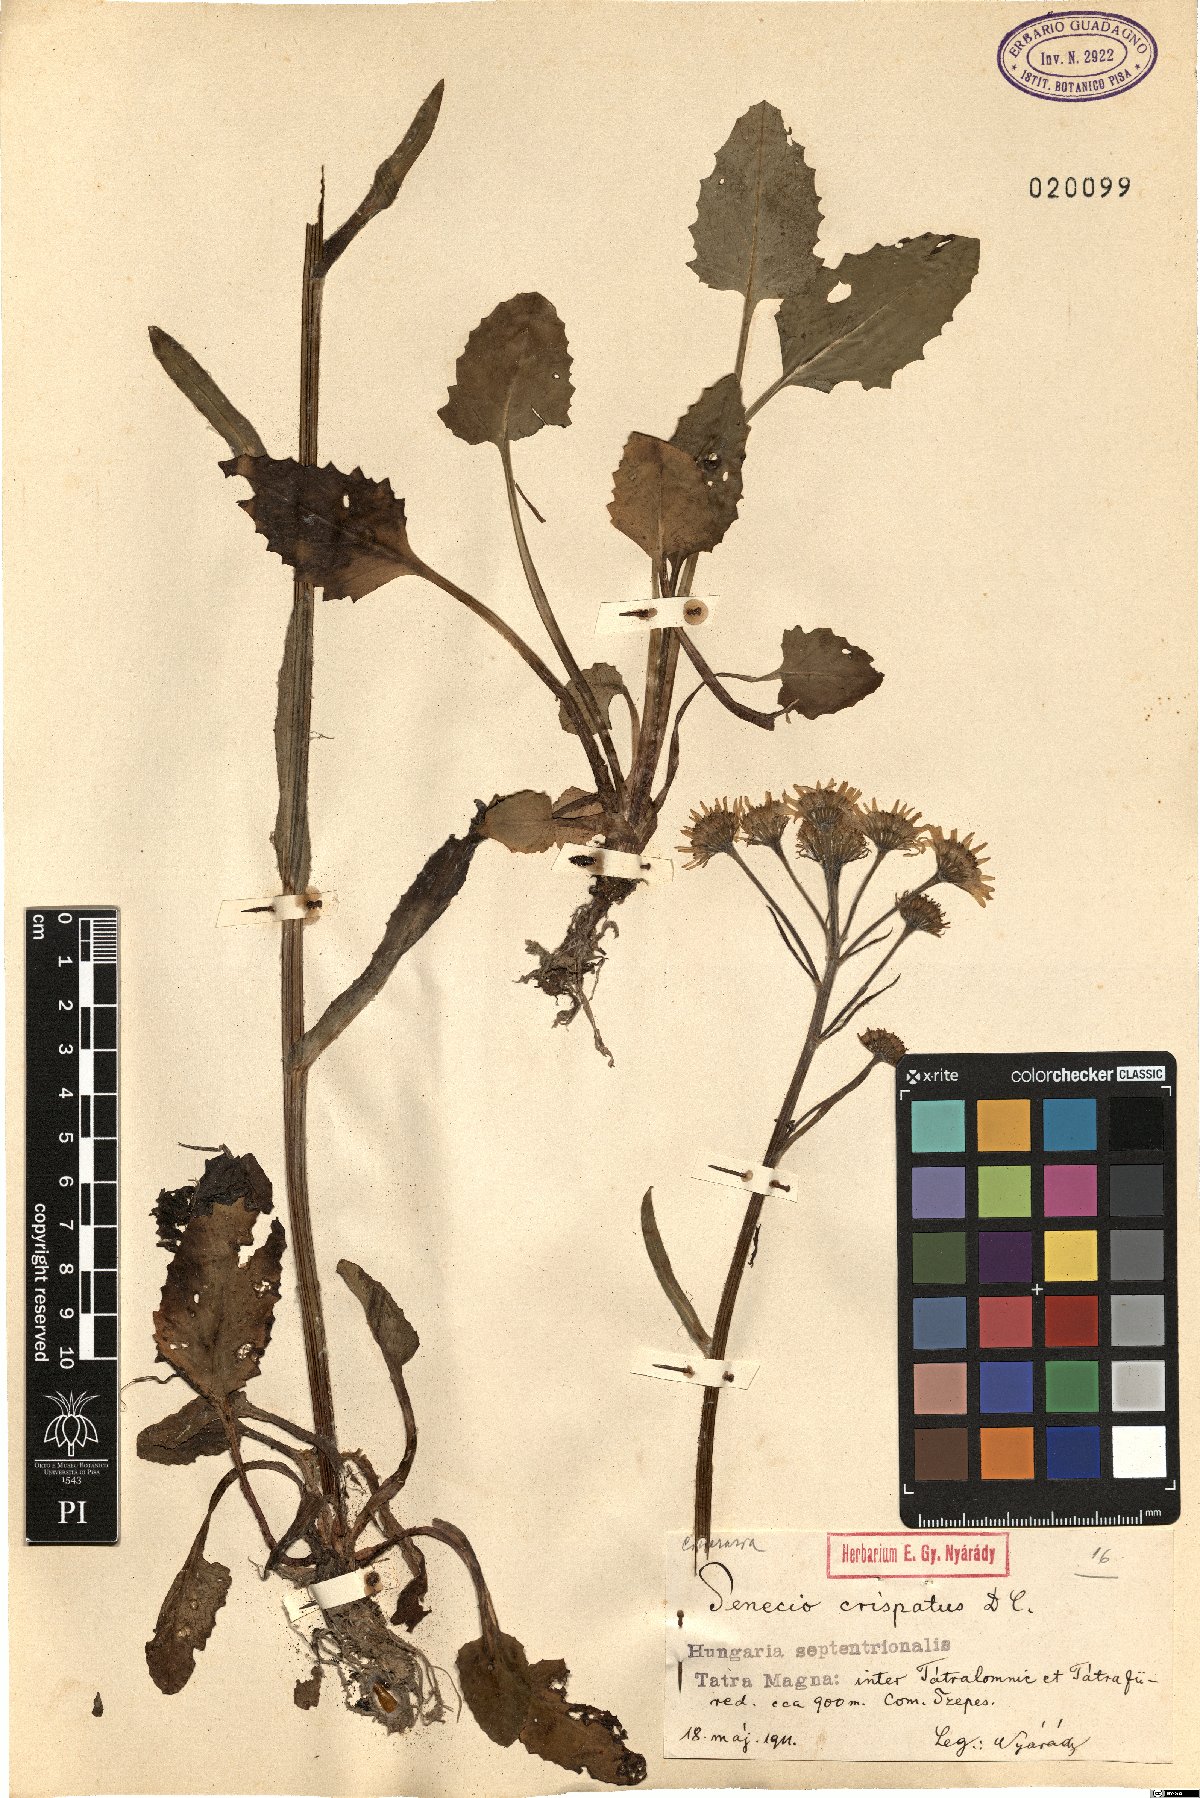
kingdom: Plantae
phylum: Tracheophyta
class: Magnoliopsida
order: Asterales
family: Asteraceae
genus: Tephroseris
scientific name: Tephroseris crispa
